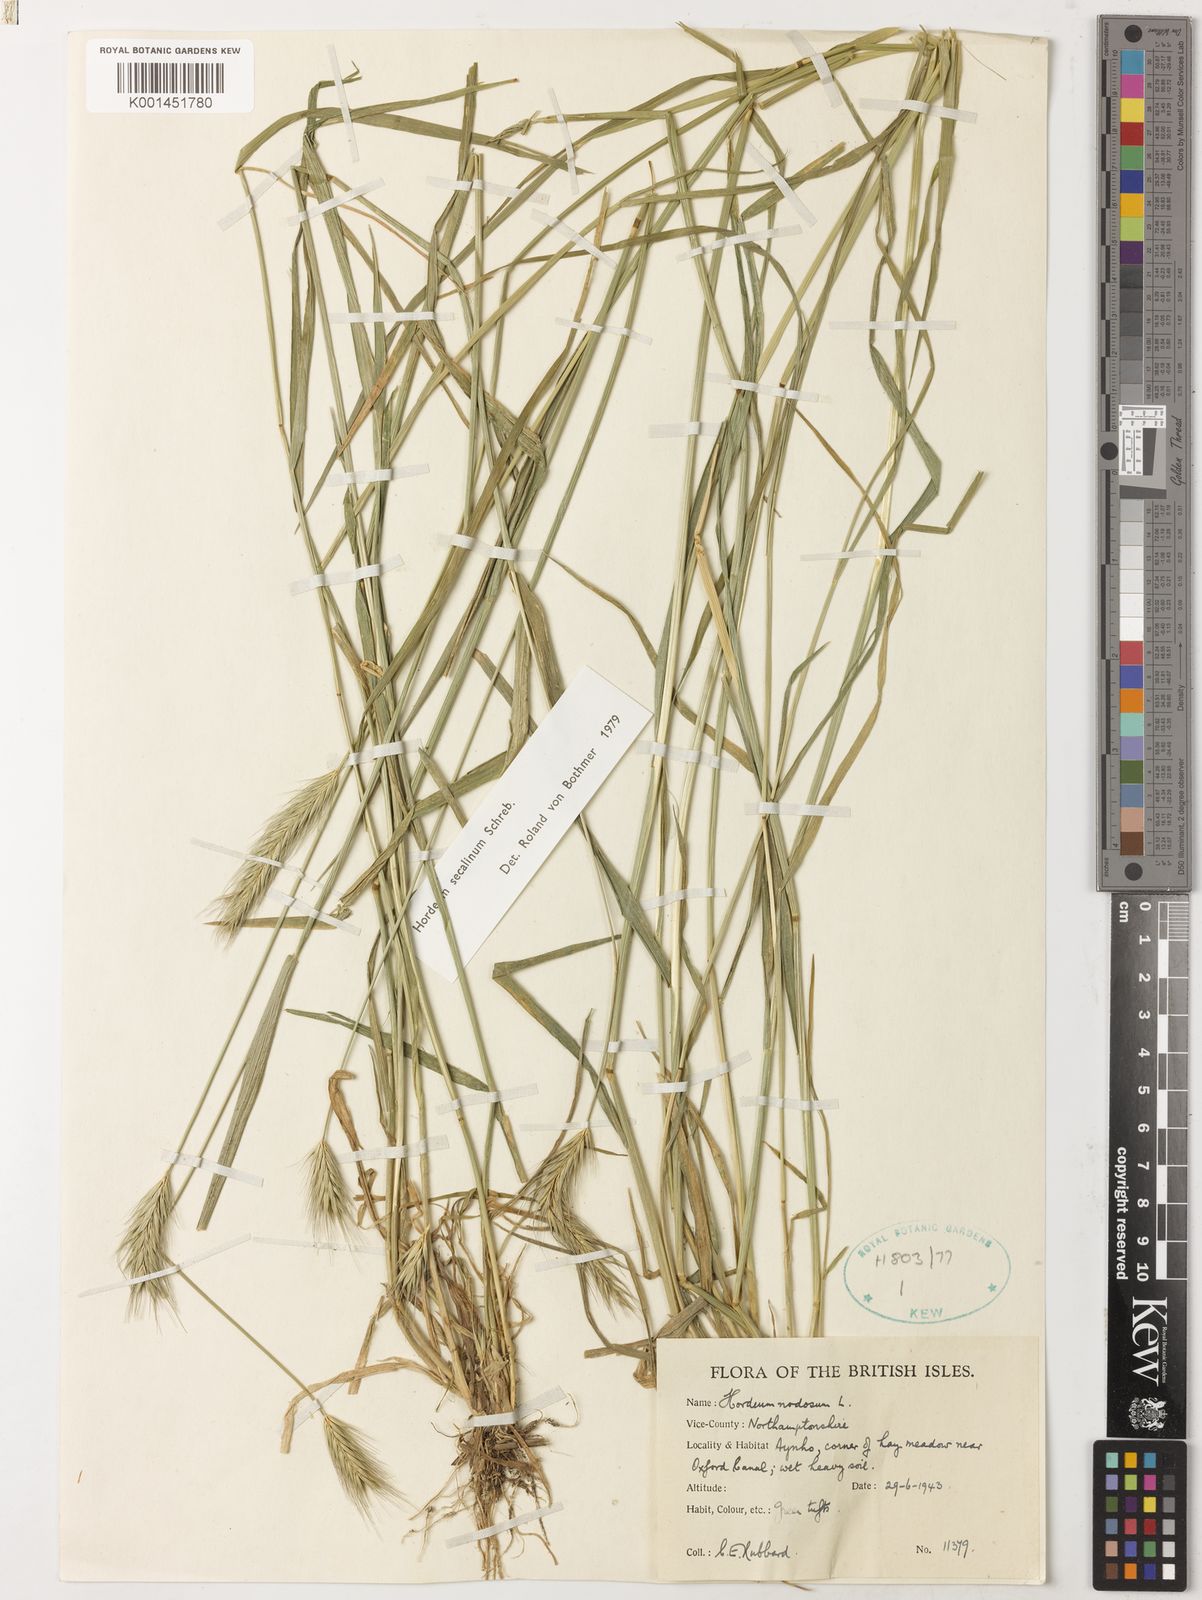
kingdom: Plantae
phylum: Tracheophyta
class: Liliopsida
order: Poales
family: Poaceae
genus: Hordeum
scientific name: Hordeum secalinum
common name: Meadow barley
